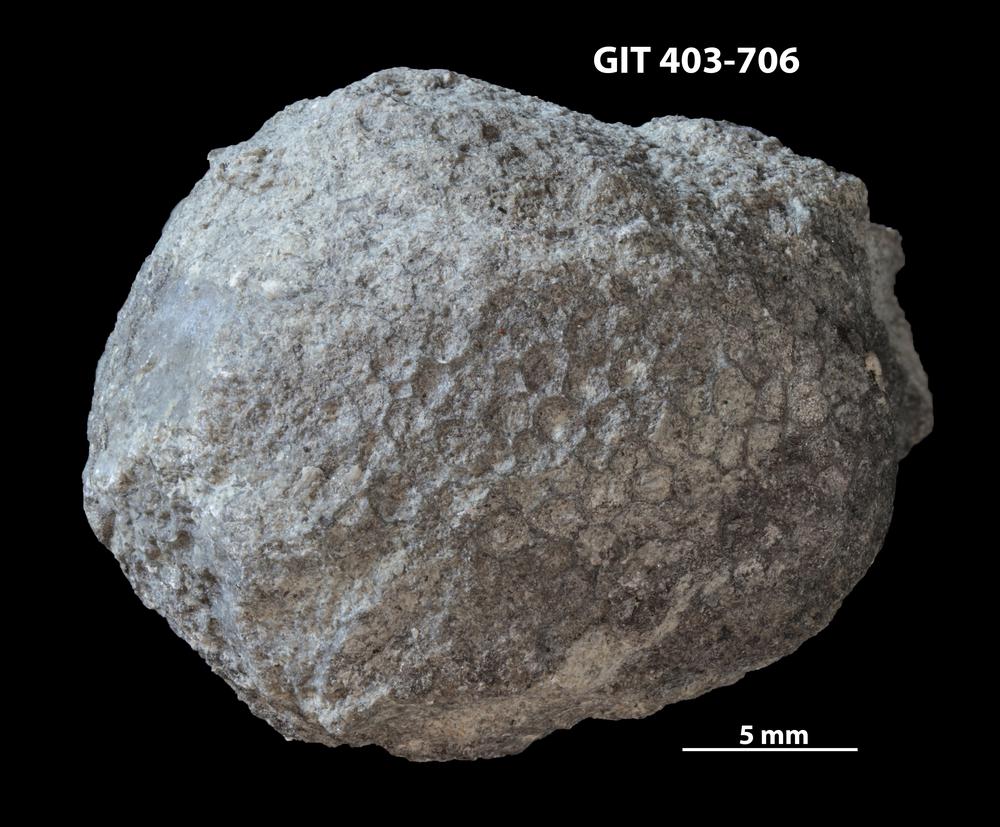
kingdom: Animalia
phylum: Cnidaria
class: Anthozoa
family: Favositidae
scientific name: Favositidae
